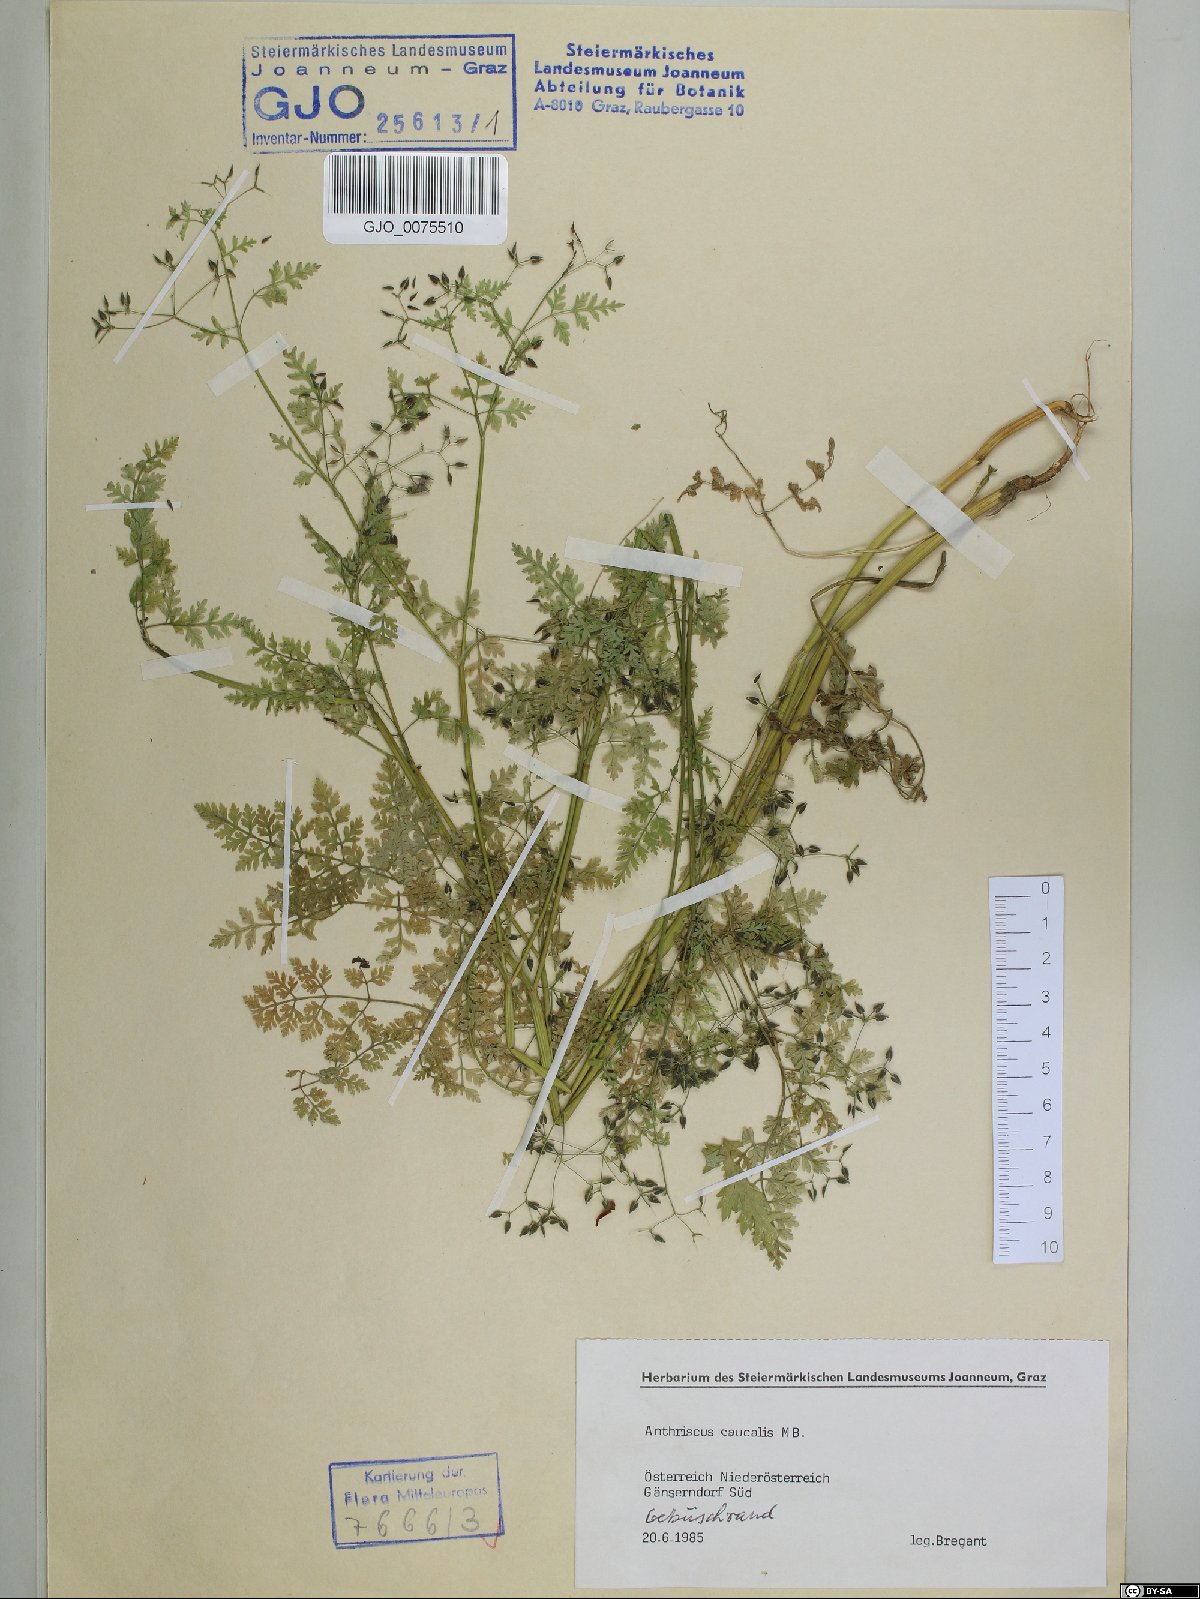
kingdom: Plantae
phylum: Tracheophyta
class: Magnoliopsida
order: Apiales
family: Apiaceae
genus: Anthriscus
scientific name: Anthriscus caucalis
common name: Bur chervil
